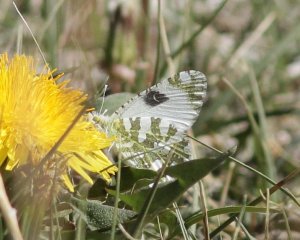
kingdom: Animalia
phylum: Arthropoda
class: Insecta
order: Lepidoptera
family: Pieridae
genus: Euchloe
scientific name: Euchloe lotta
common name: Desert Marble
